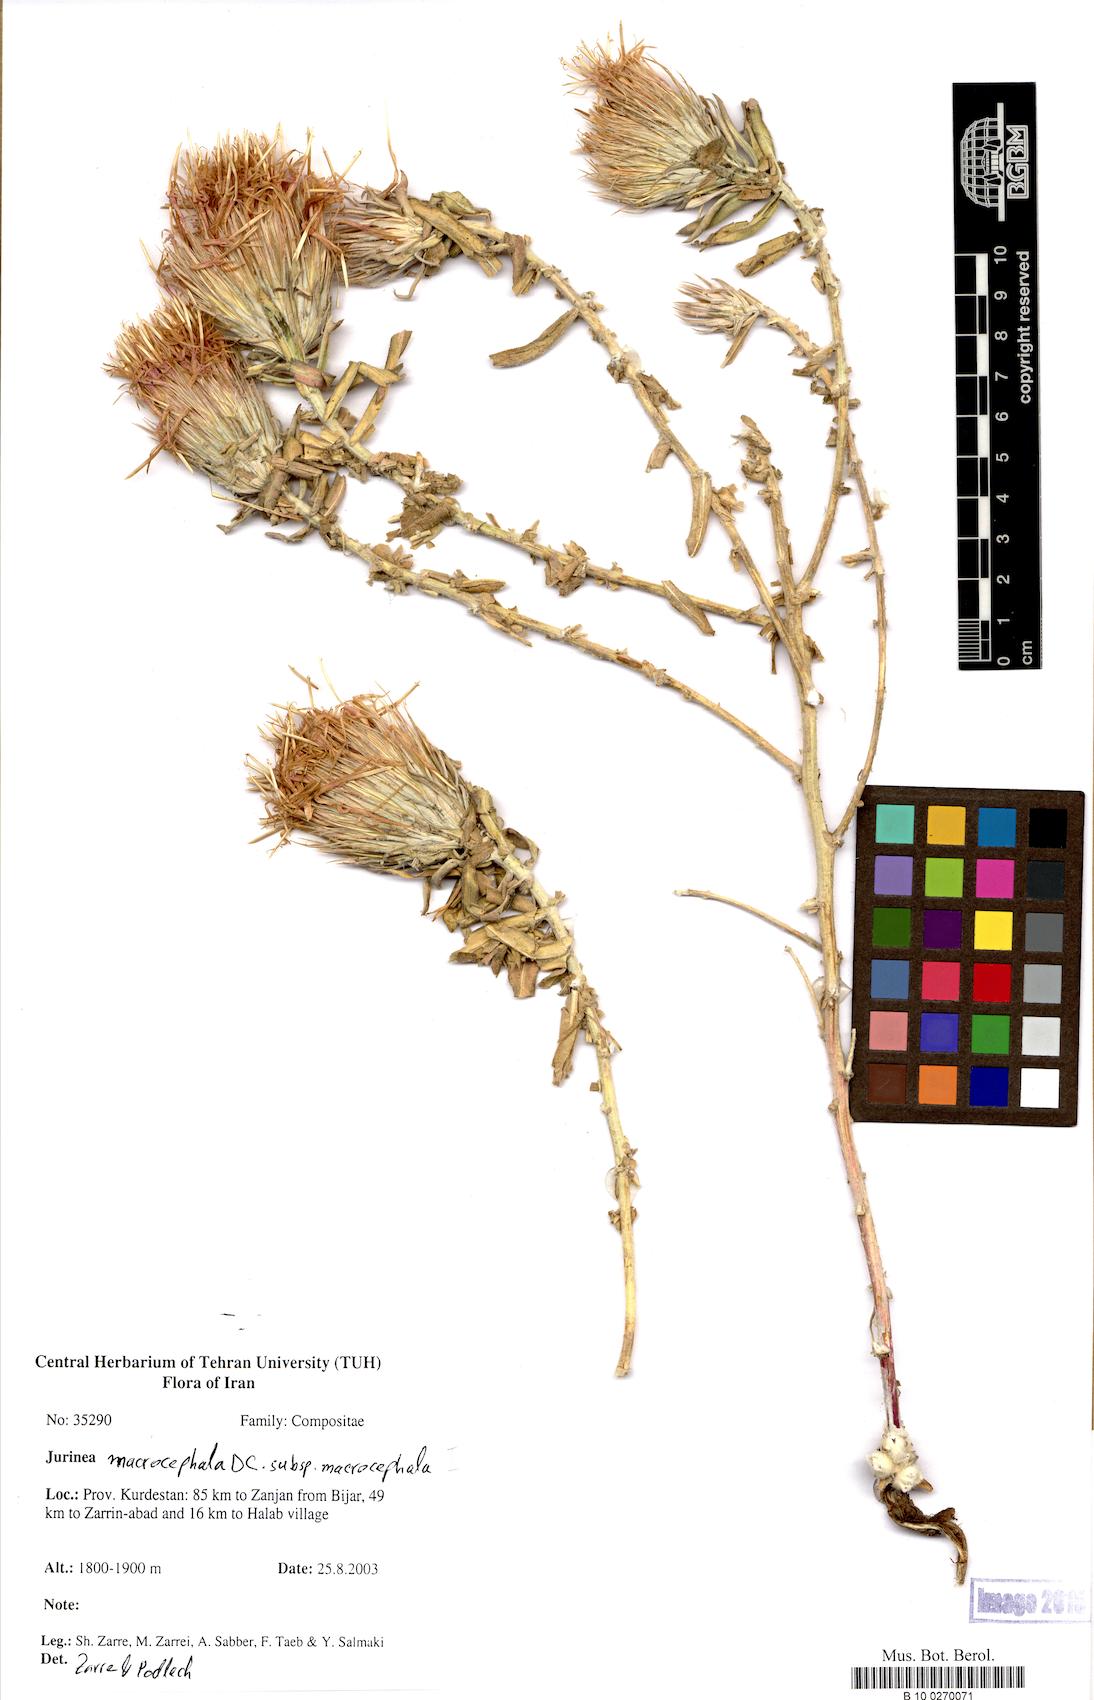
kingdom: Plantae
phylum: Tracheophyta
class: Magnoliopsida
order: Asterales
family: Asteraceae
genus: Jurinea
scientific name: Jurinea macrocephala
